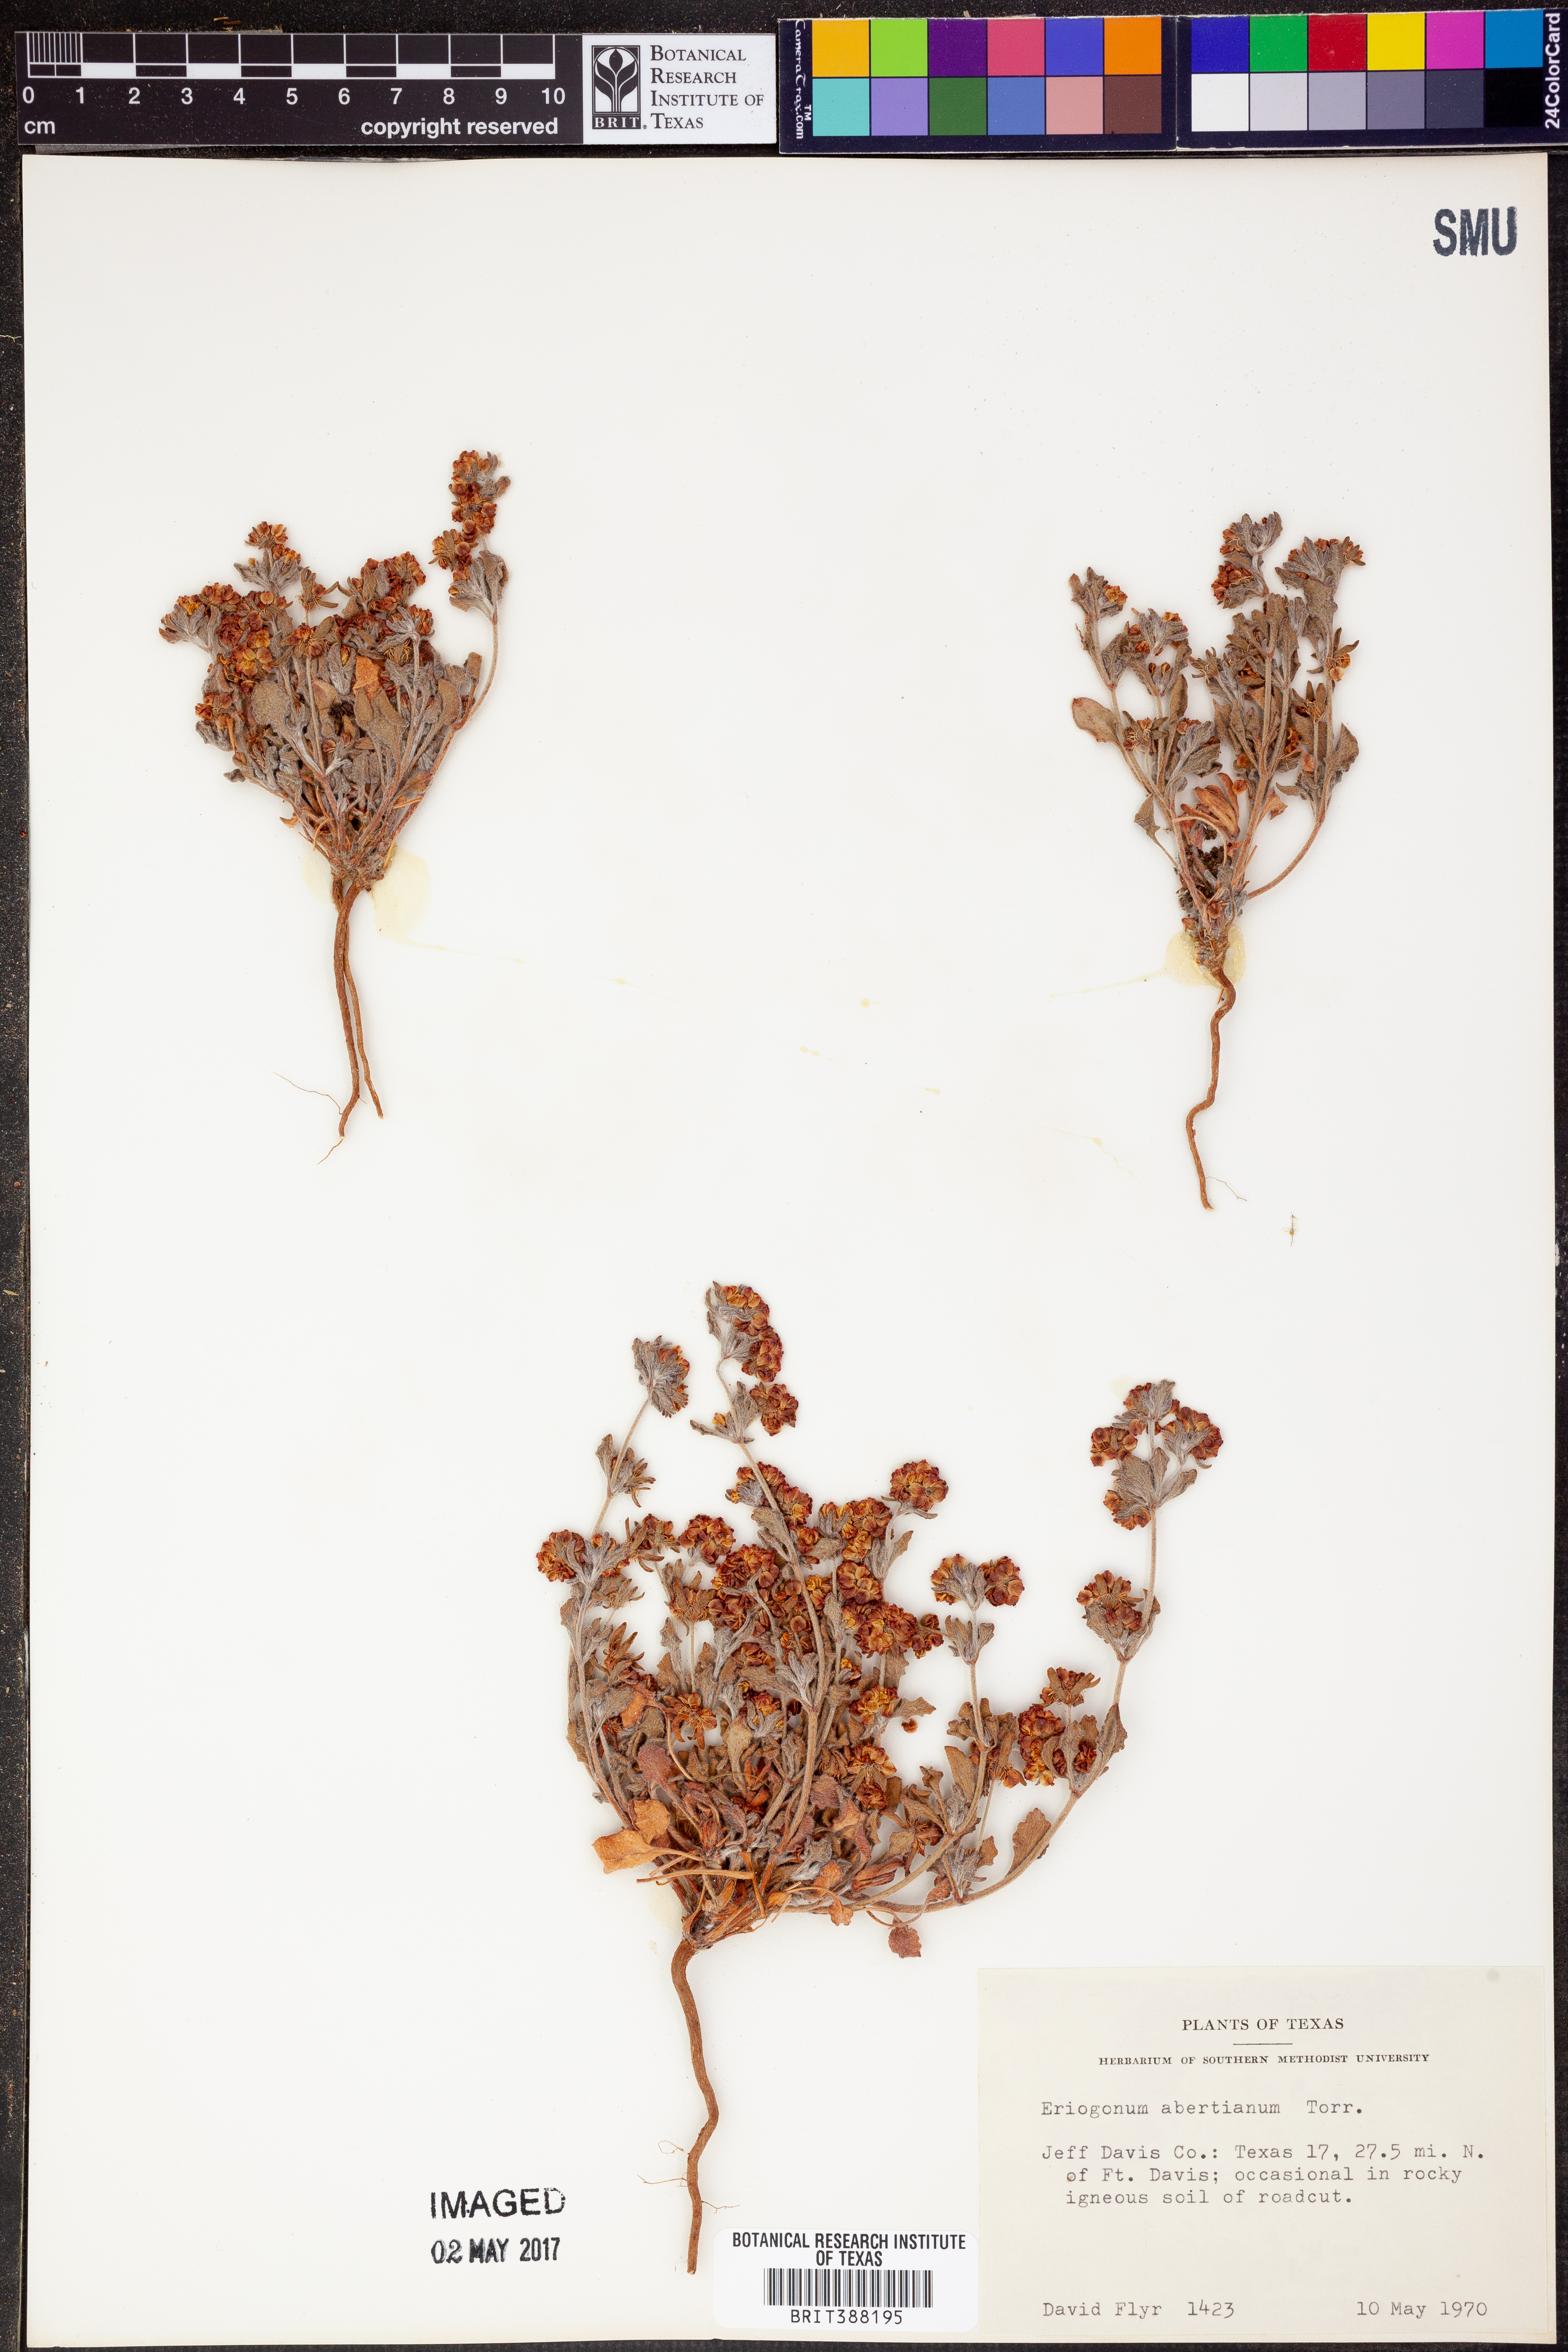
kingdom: Plantae
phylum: Tracheophyta
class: Magnoliopsida
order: Caryophyllales
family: Polygonaceae
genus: Eriogonum
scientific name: Eriogonum abertianum
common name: Abert's wild buckwheat
